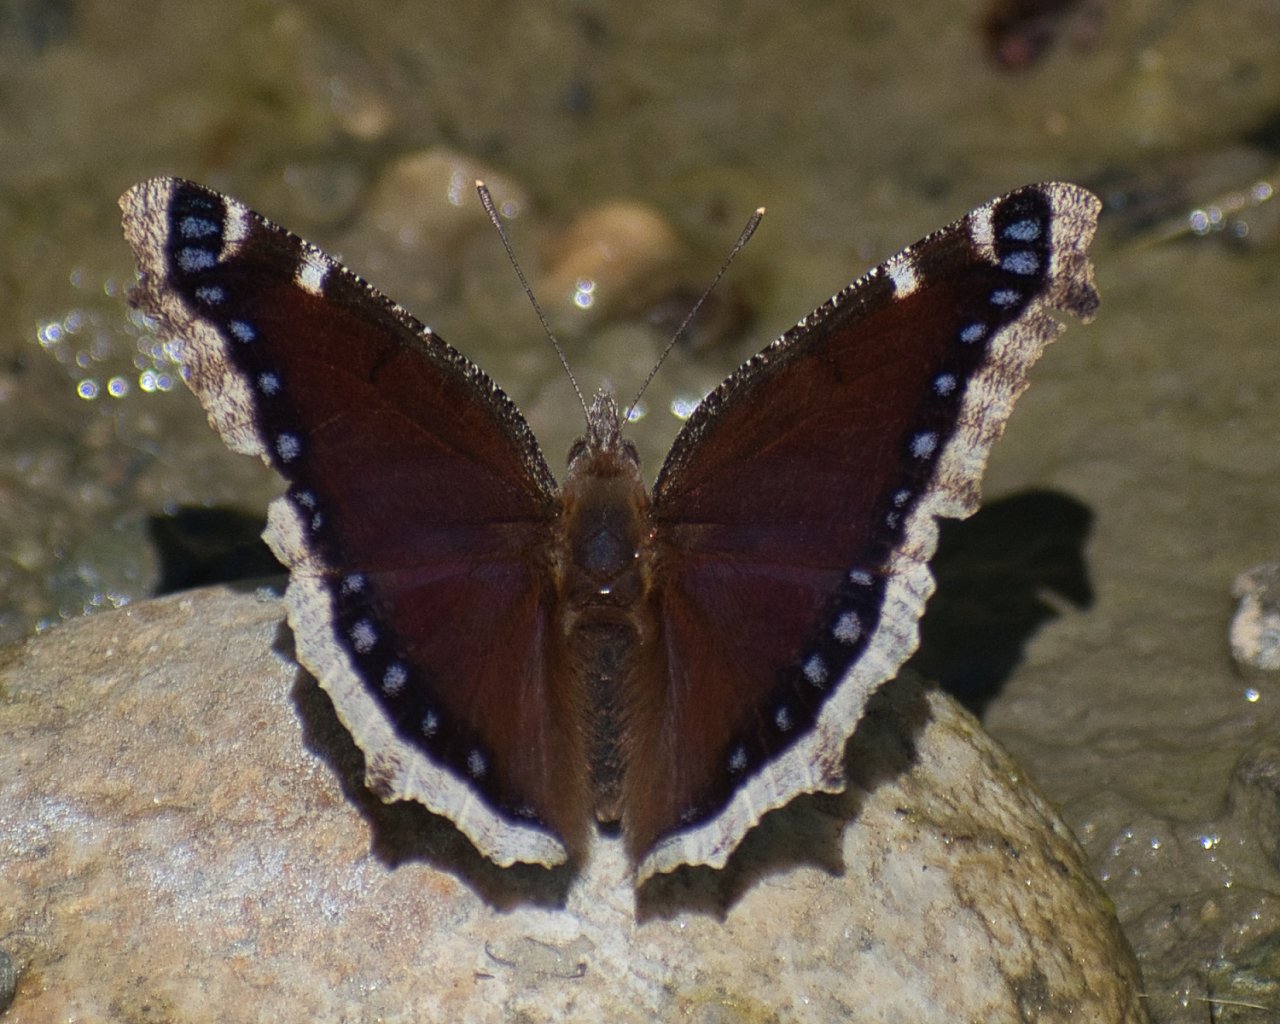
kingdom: Animalia
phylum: Arthropoda
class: Insecta
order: Lepidoptera
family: Nymphalidae
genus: Nymphalis
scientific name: Nymphalis antiopa
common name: Mourning Cloak
